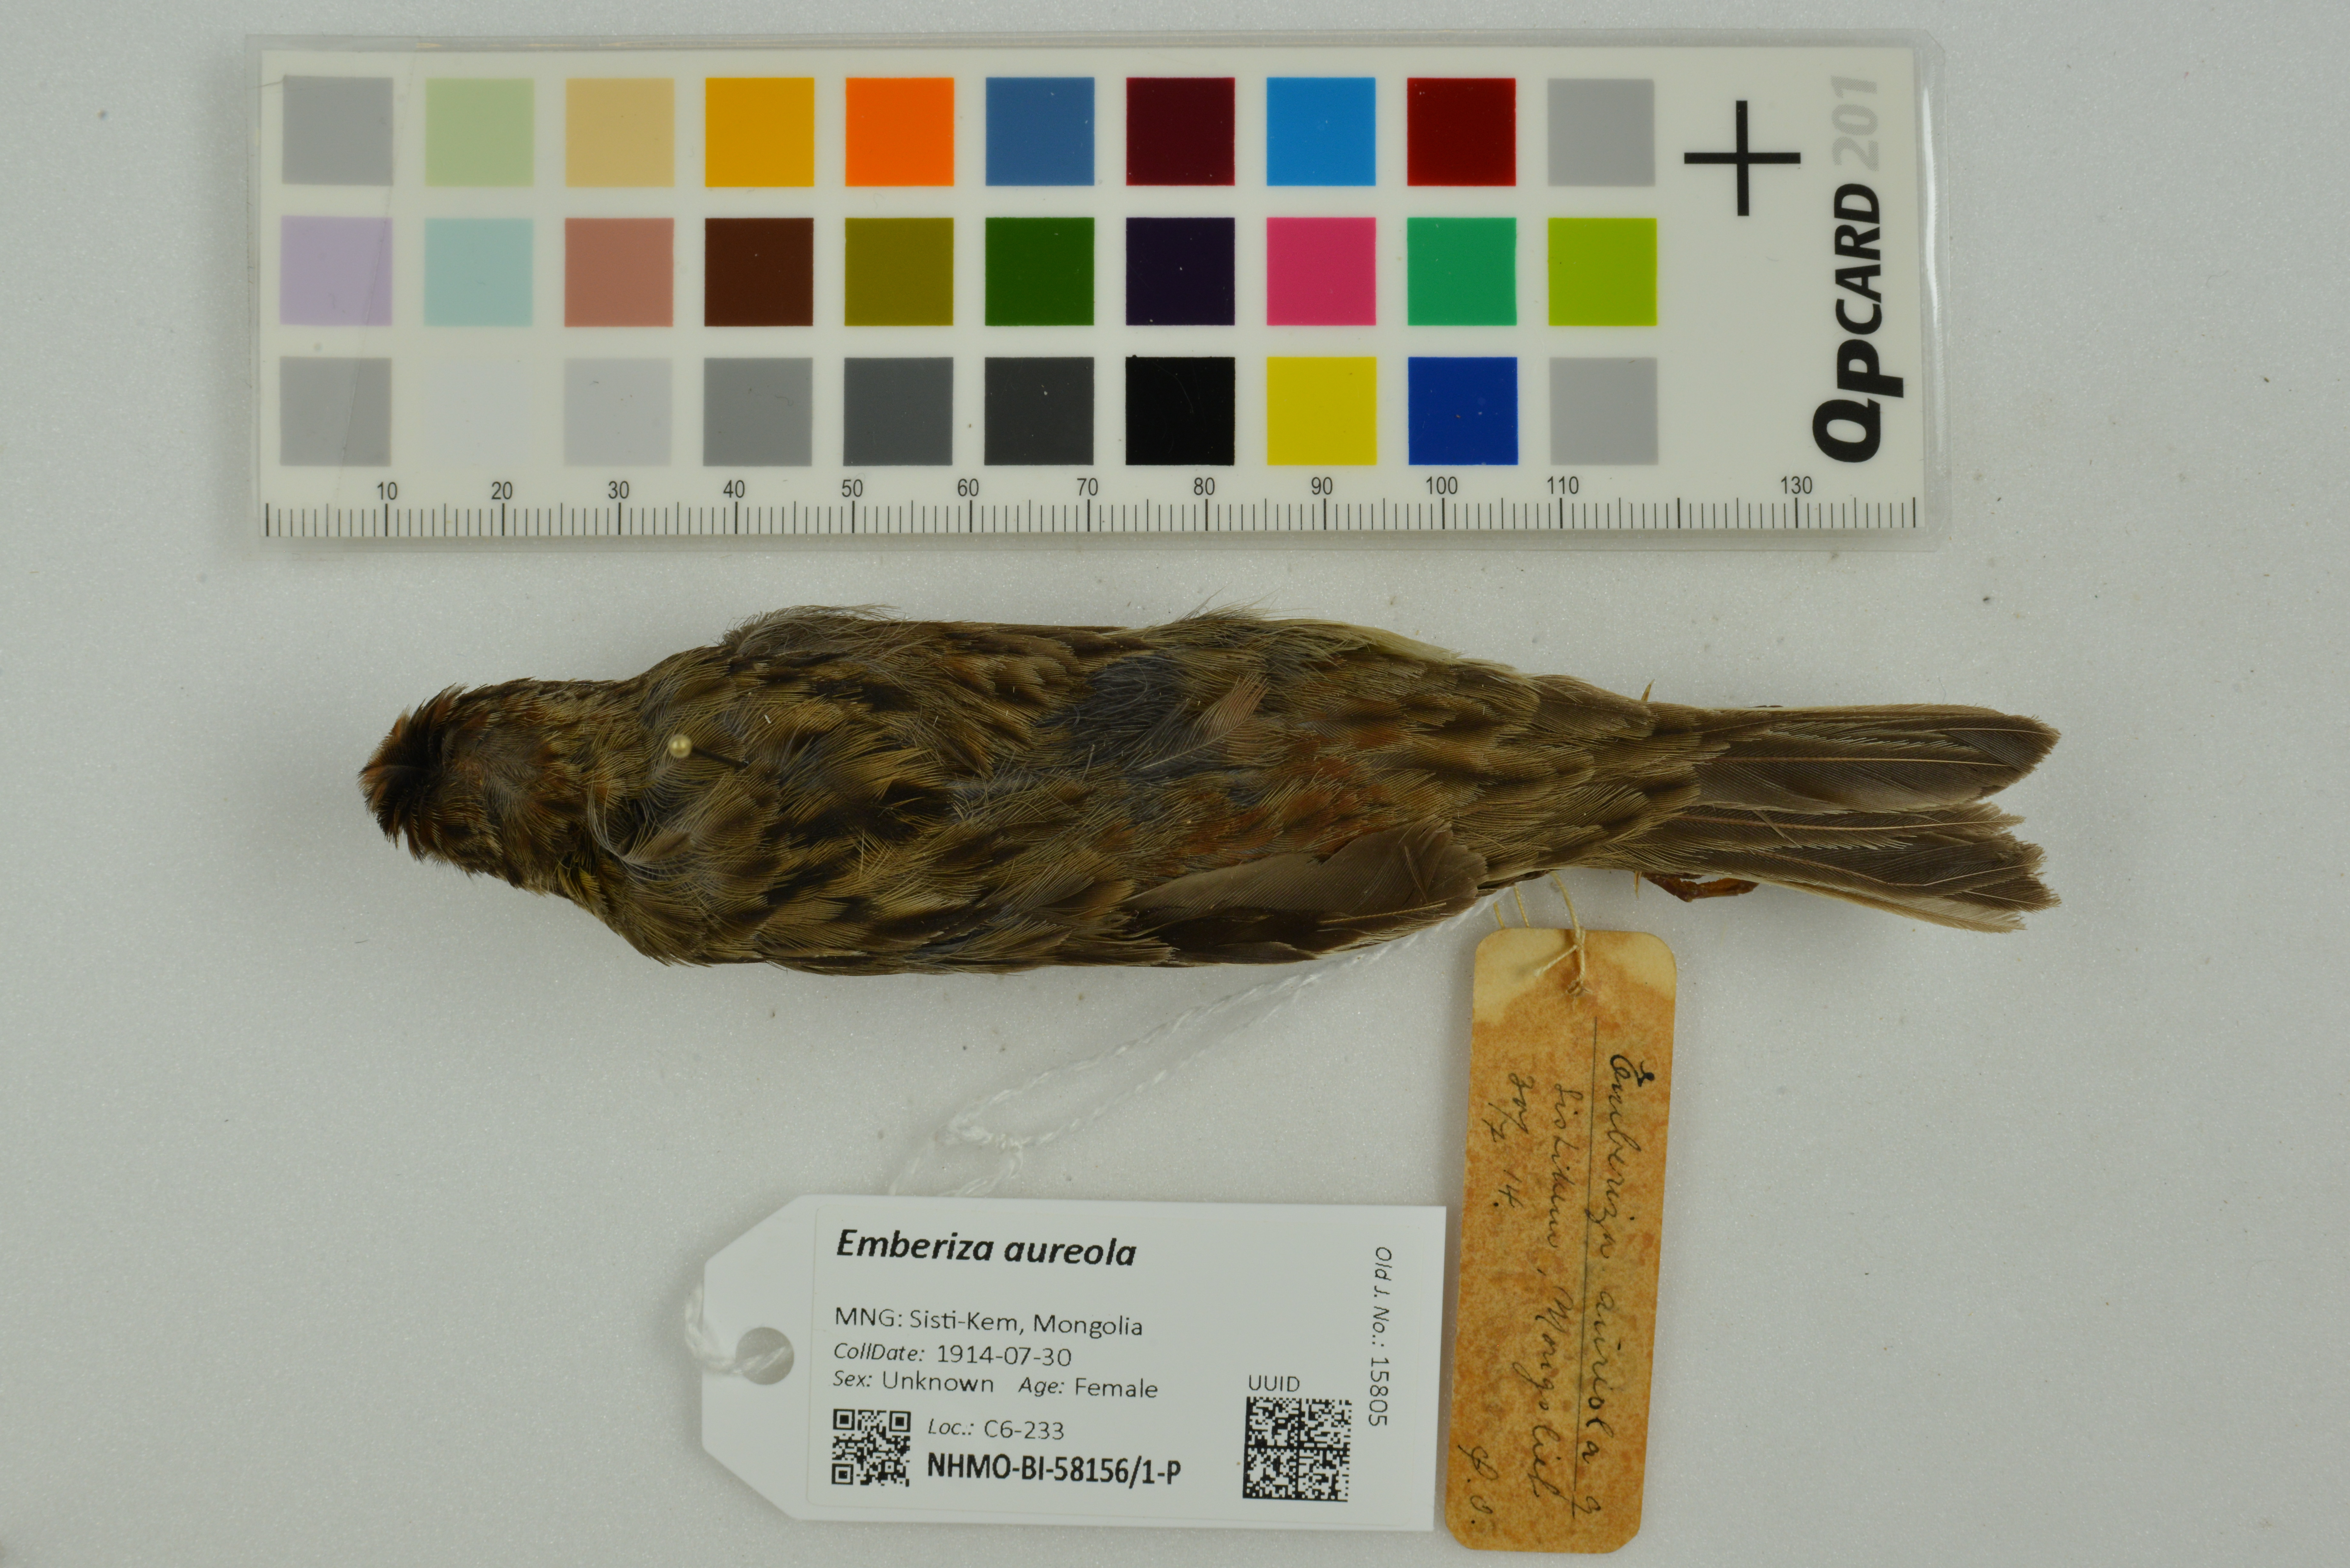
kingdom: Animalia
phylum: Chordata
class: Aves
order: Passeriformes
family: Emberizidae
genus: Emberiza
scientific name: Emberiza aureola
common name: Yellow-breasted bunting
